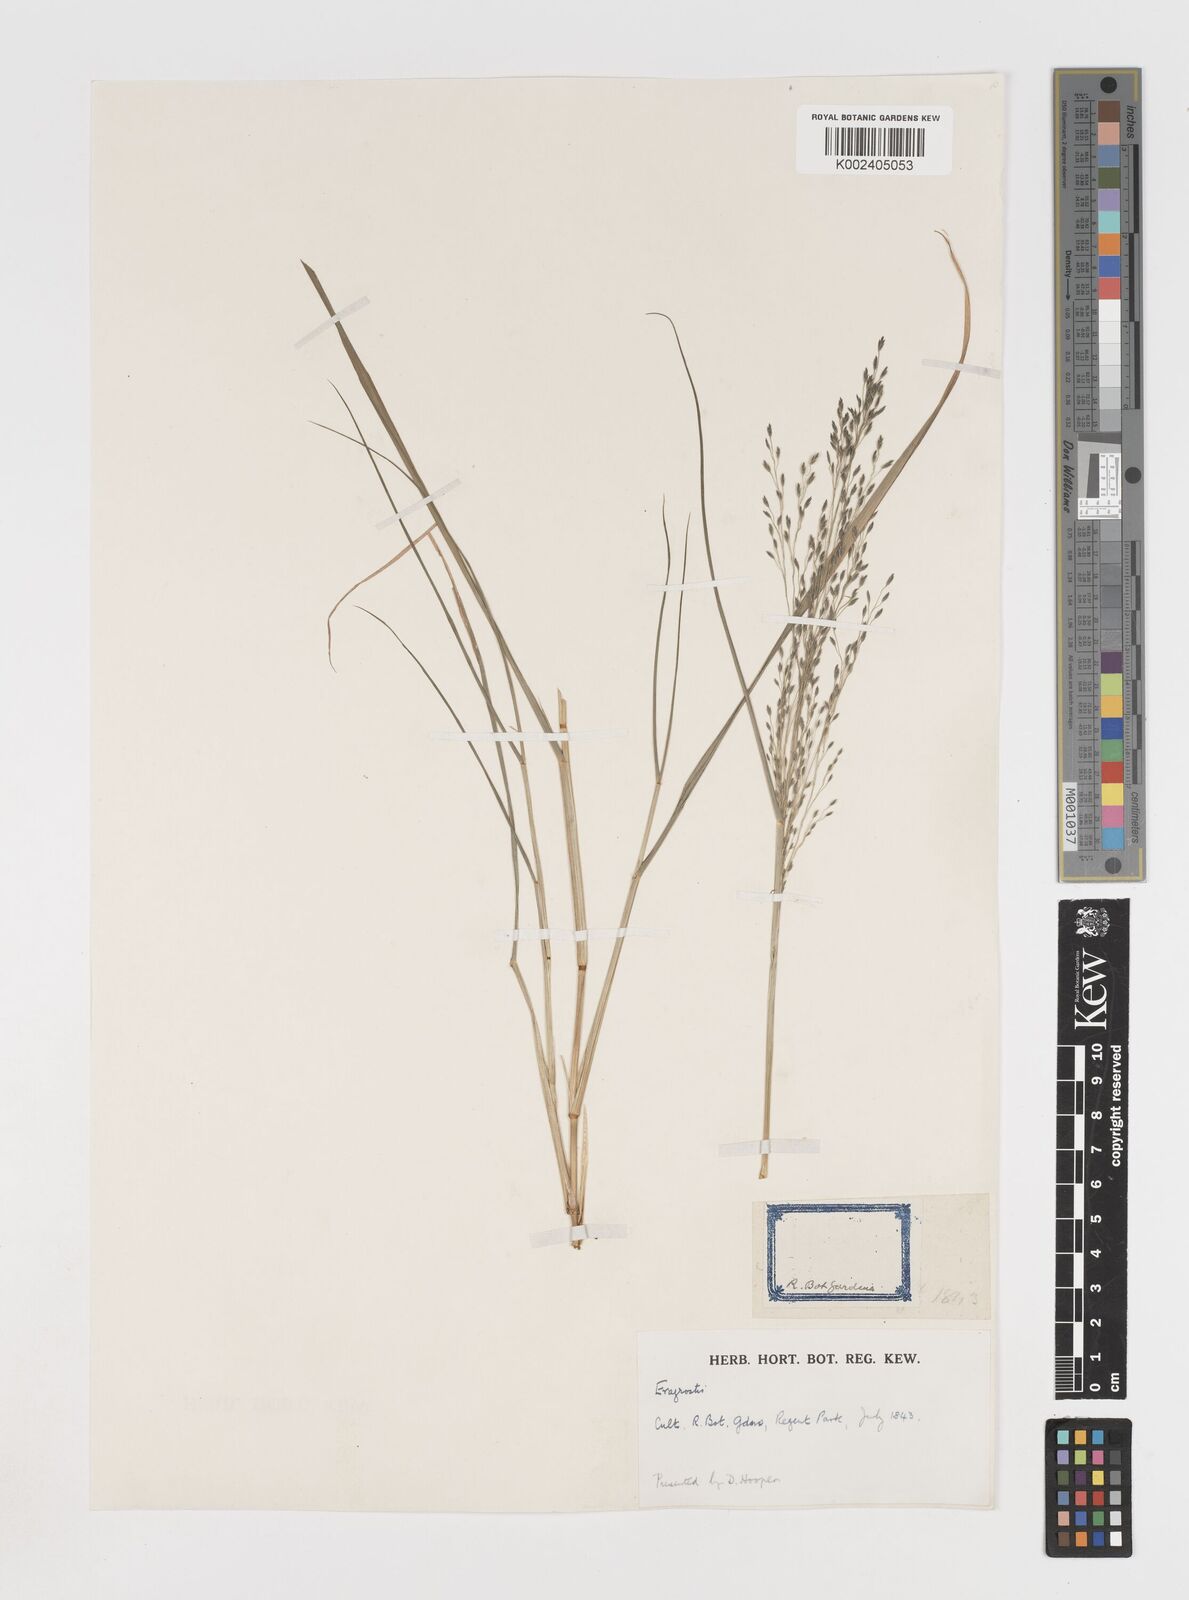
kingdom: Plantae
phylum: Tracheophyta
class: Liliopsida
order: Poales
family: Poaceae
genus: Eragrostis
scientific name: Eragrostis curvula
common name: African love-grass
